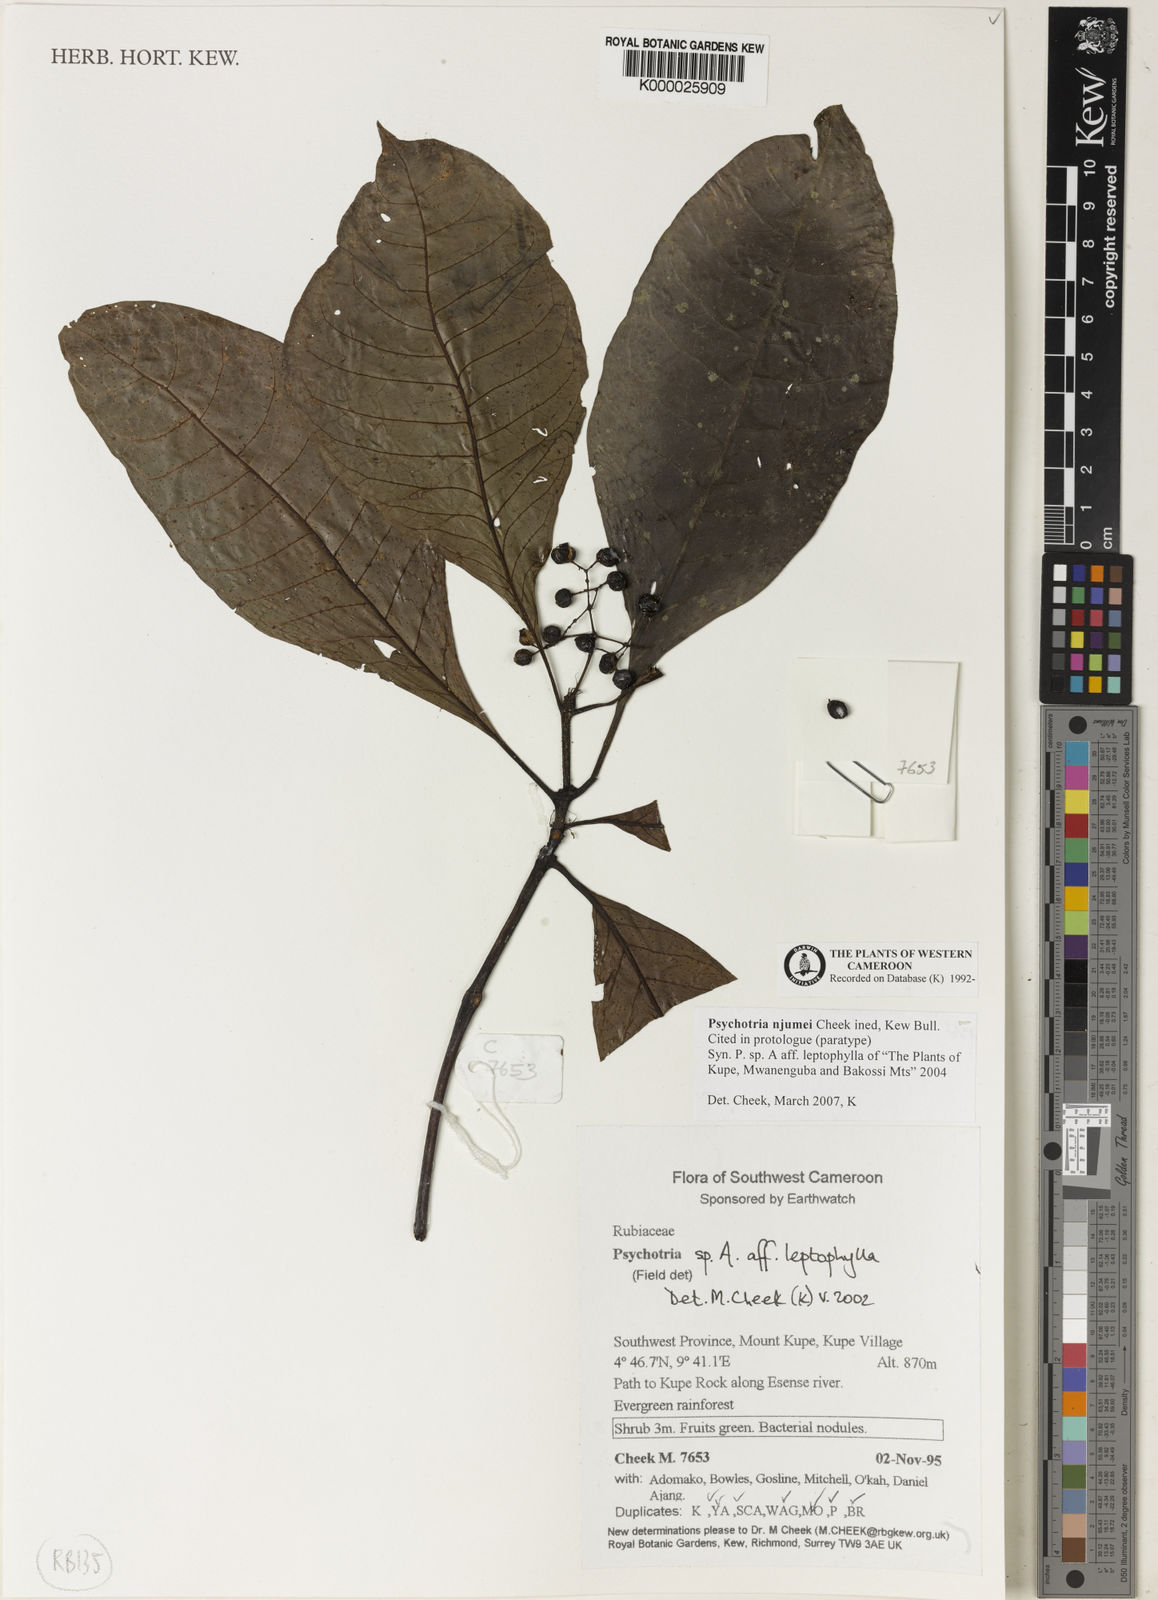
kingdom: Plantae
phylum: Tracheophyta
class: Magnoliopsida
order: Gentianales
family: Rubiaceae
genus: Psychotria
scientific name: Psychotria njumei
